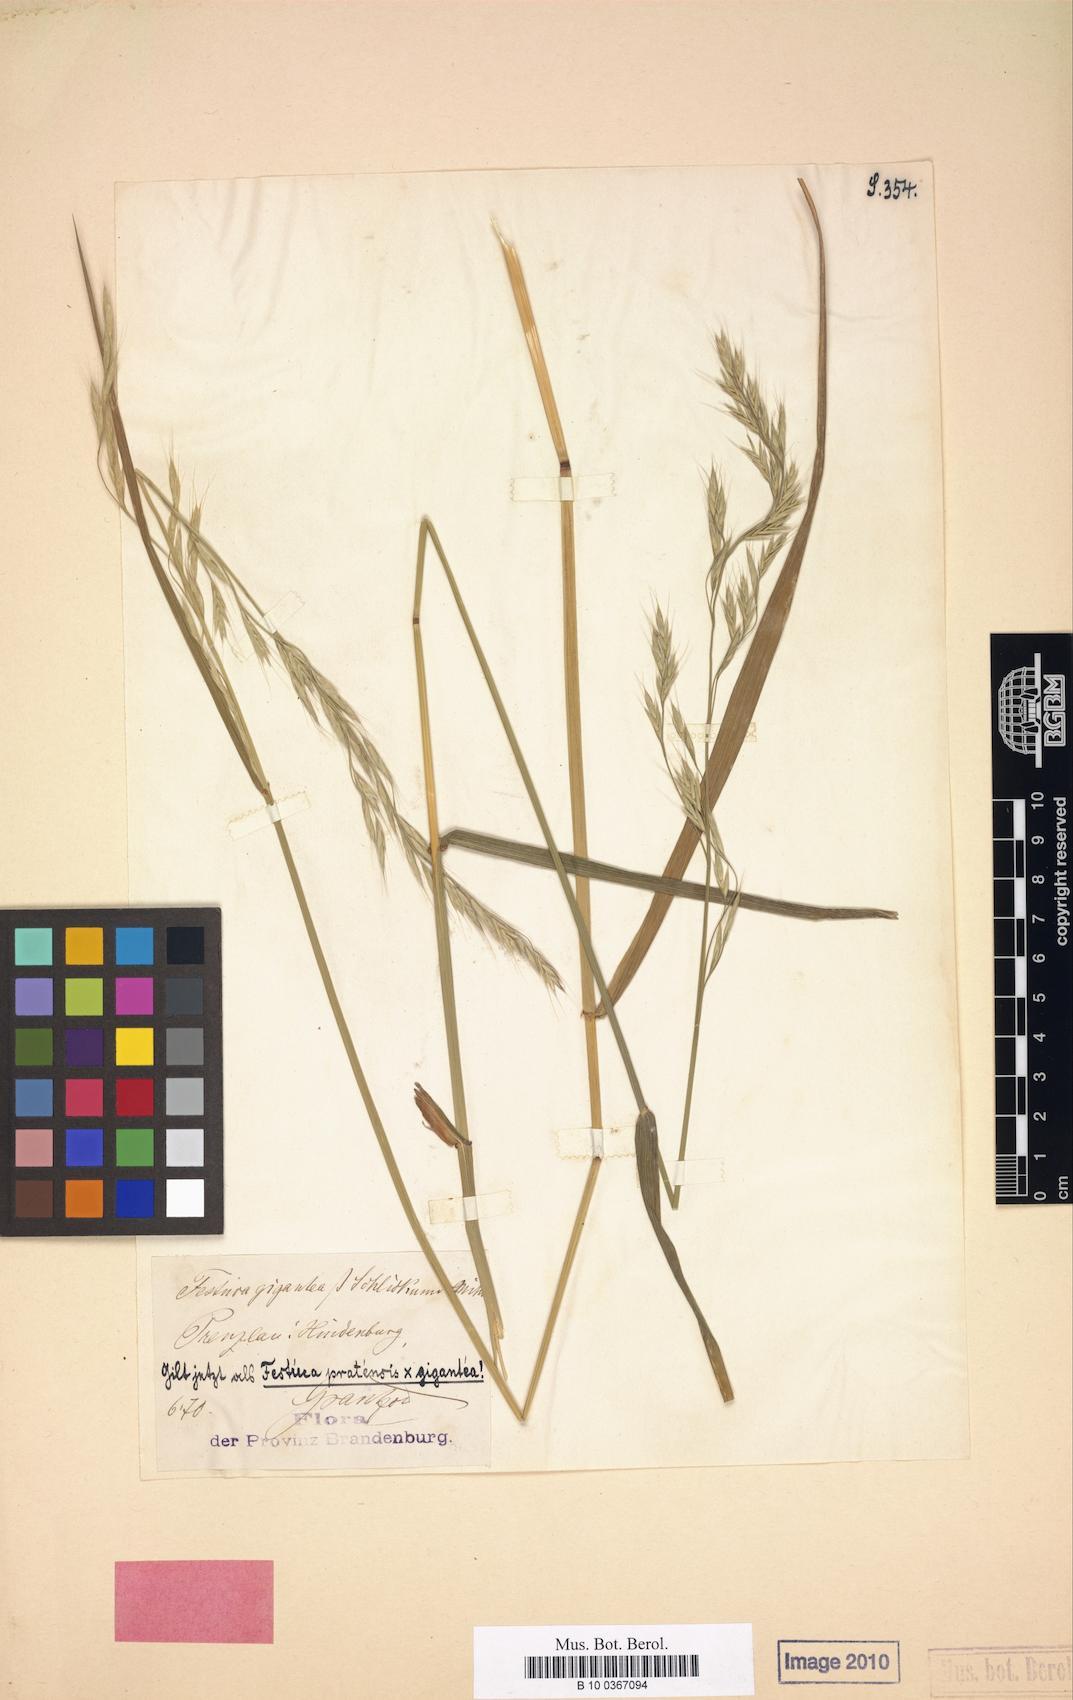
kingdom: Plantae
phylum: Tracheophyta
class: Liliopsida
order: Poales
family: Poaceae
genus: Lolium
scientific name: Lolium schlickumii
